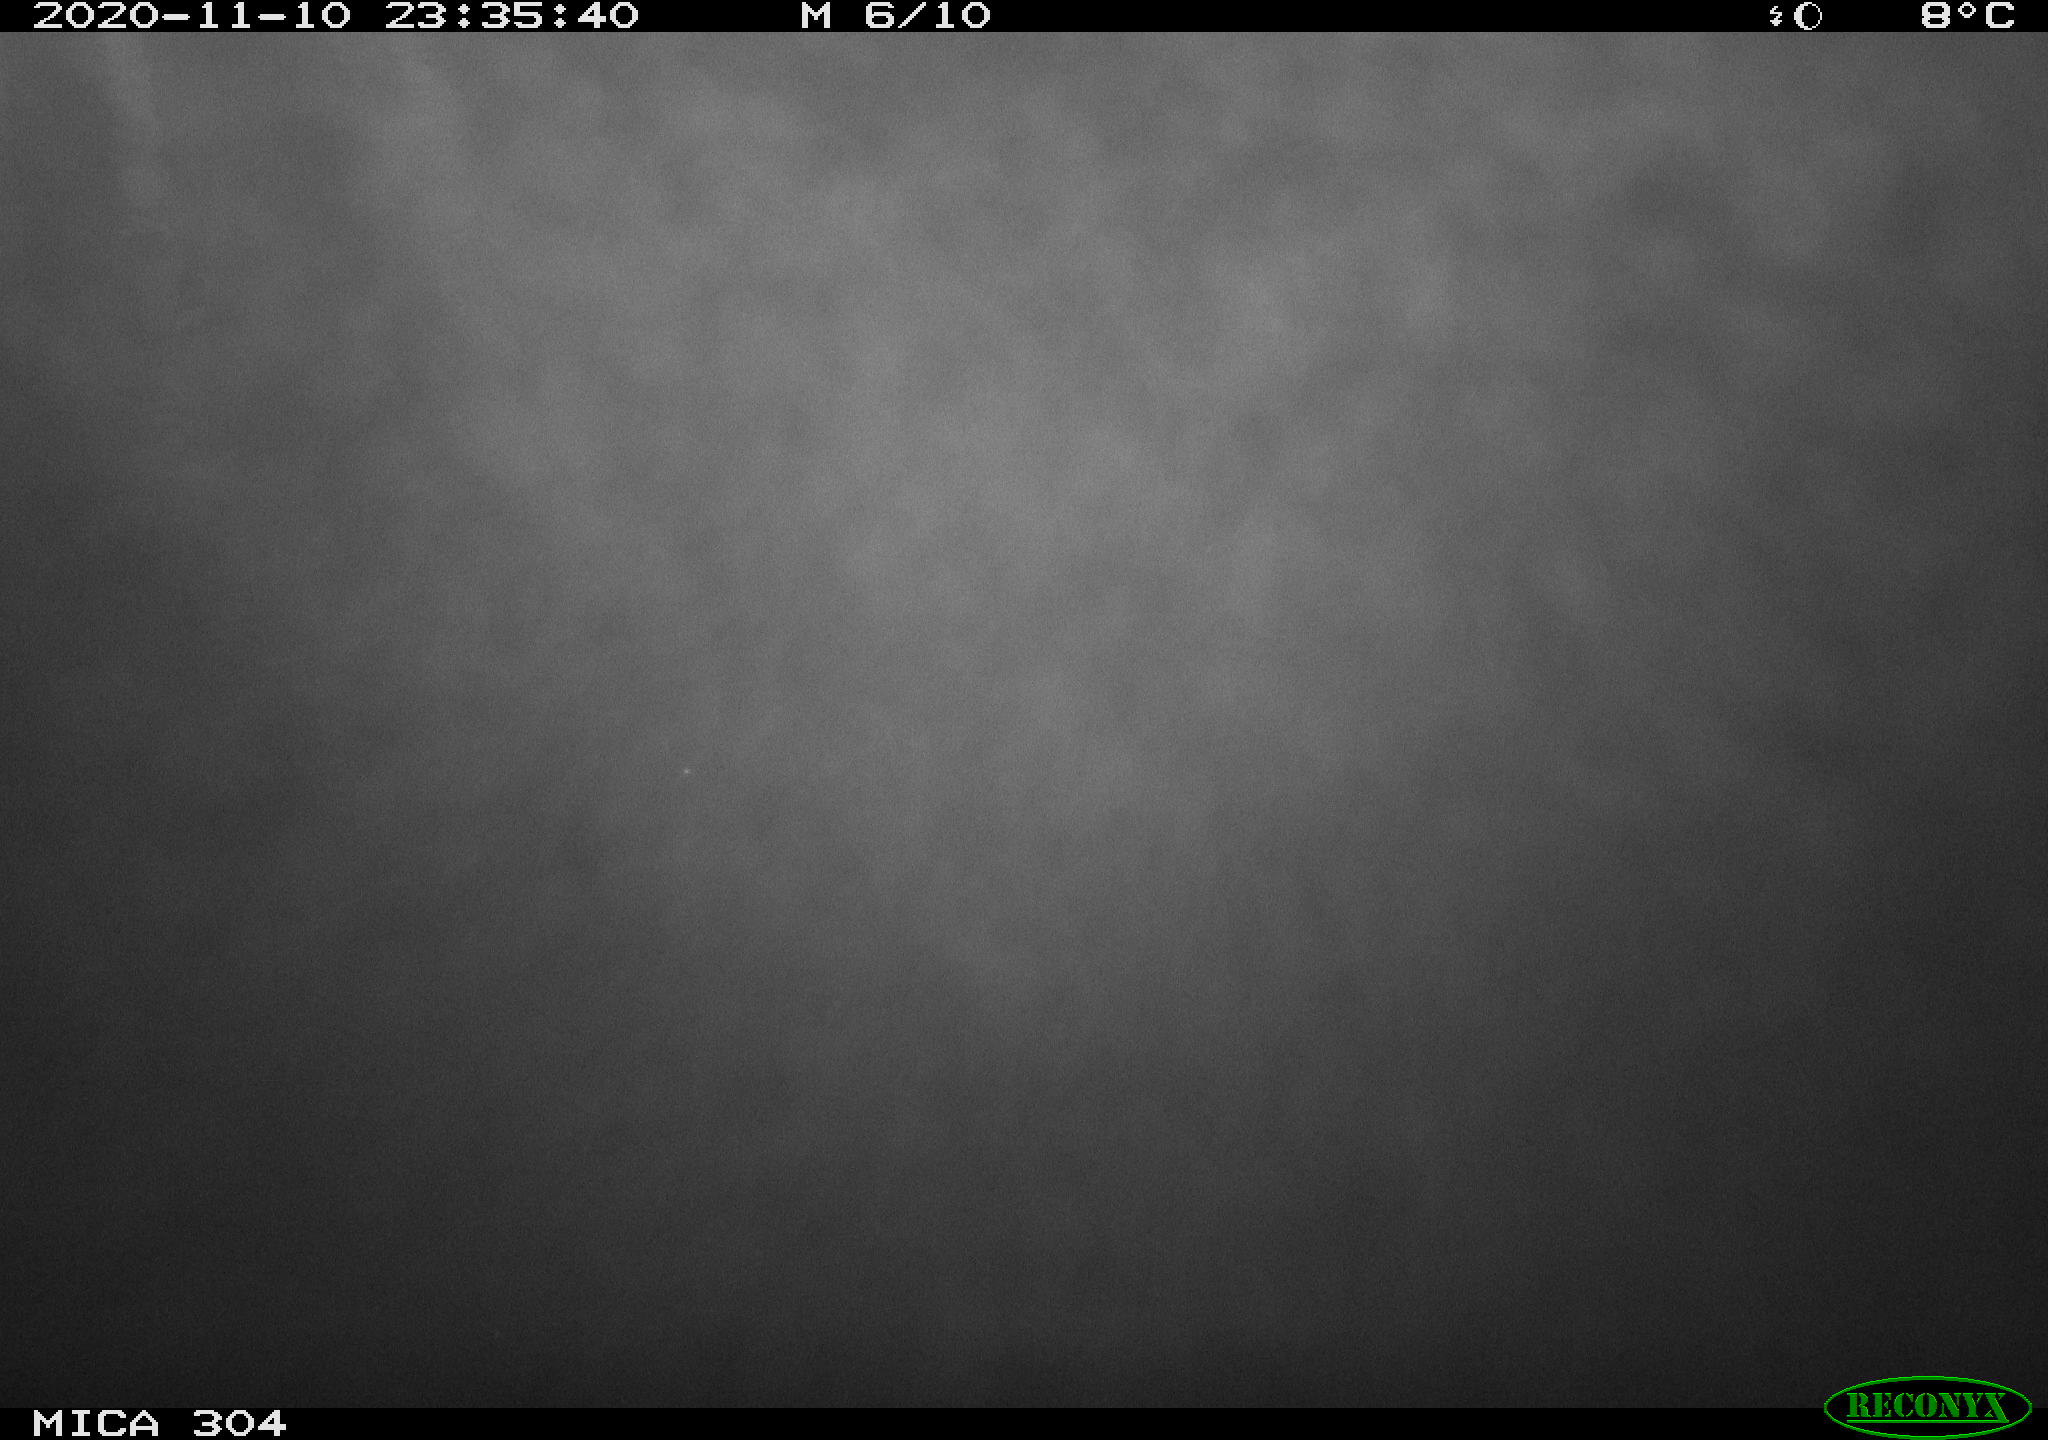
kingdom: Animalia
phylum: Chordata
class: Mammalia
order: Rodentia
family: Muridae
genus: Rattus
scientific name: Rattus norvegicus
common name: Brown rat
